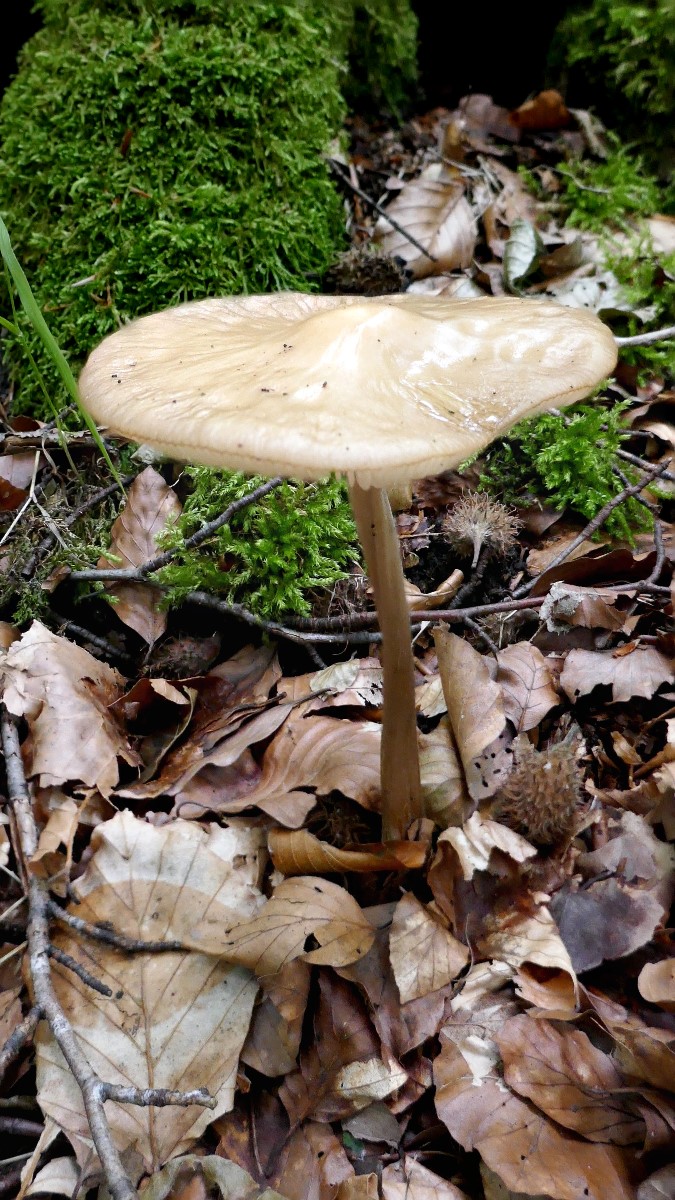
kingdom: Fungi
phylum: Basidiomycota
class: Agaricomycetes
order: Agaricales
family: Physalacriaceae
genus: Hymenopellis
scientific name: Hymenopellis radicata
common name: almindelig pælerodshat
